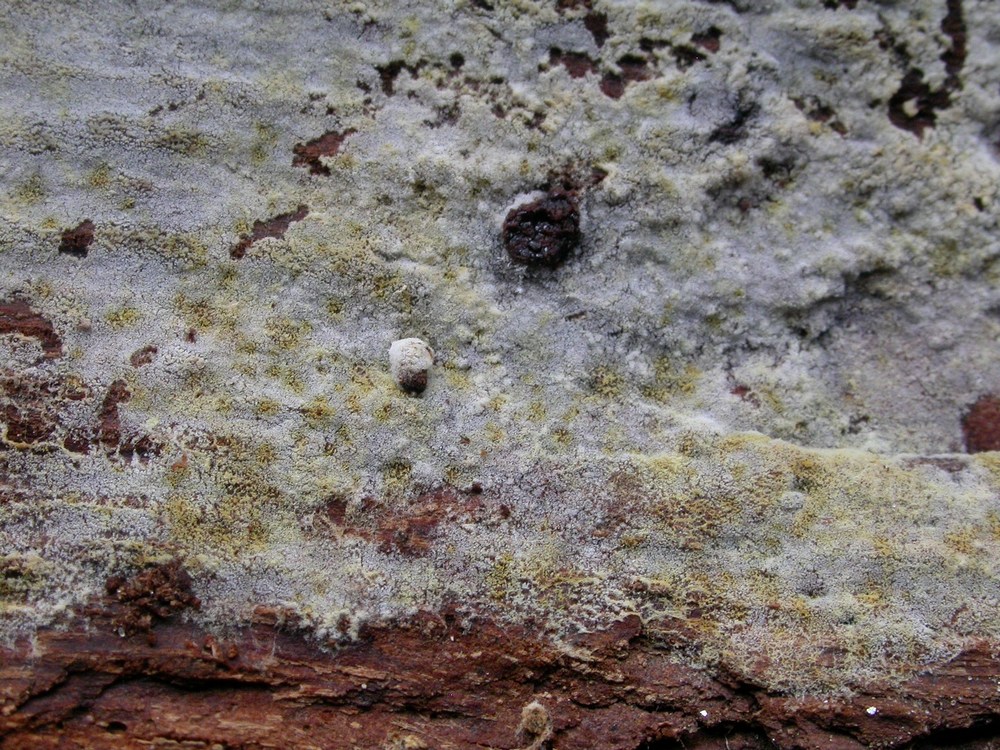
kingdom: Fungi
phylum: Basidiomycota
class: Agaricomycetes
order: Cantharellales
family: Botryobasidiaceae
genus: Botryobasidium
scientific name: Botryobasidium laeve
